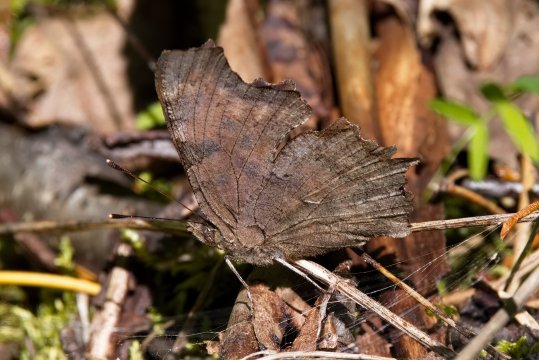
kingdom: Animalia
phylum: Arthropoda
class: Insecta
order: Lepidoptera
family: Nymphalidae
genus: Polygonia
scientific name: Polygonia faunus
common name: Green Comma
